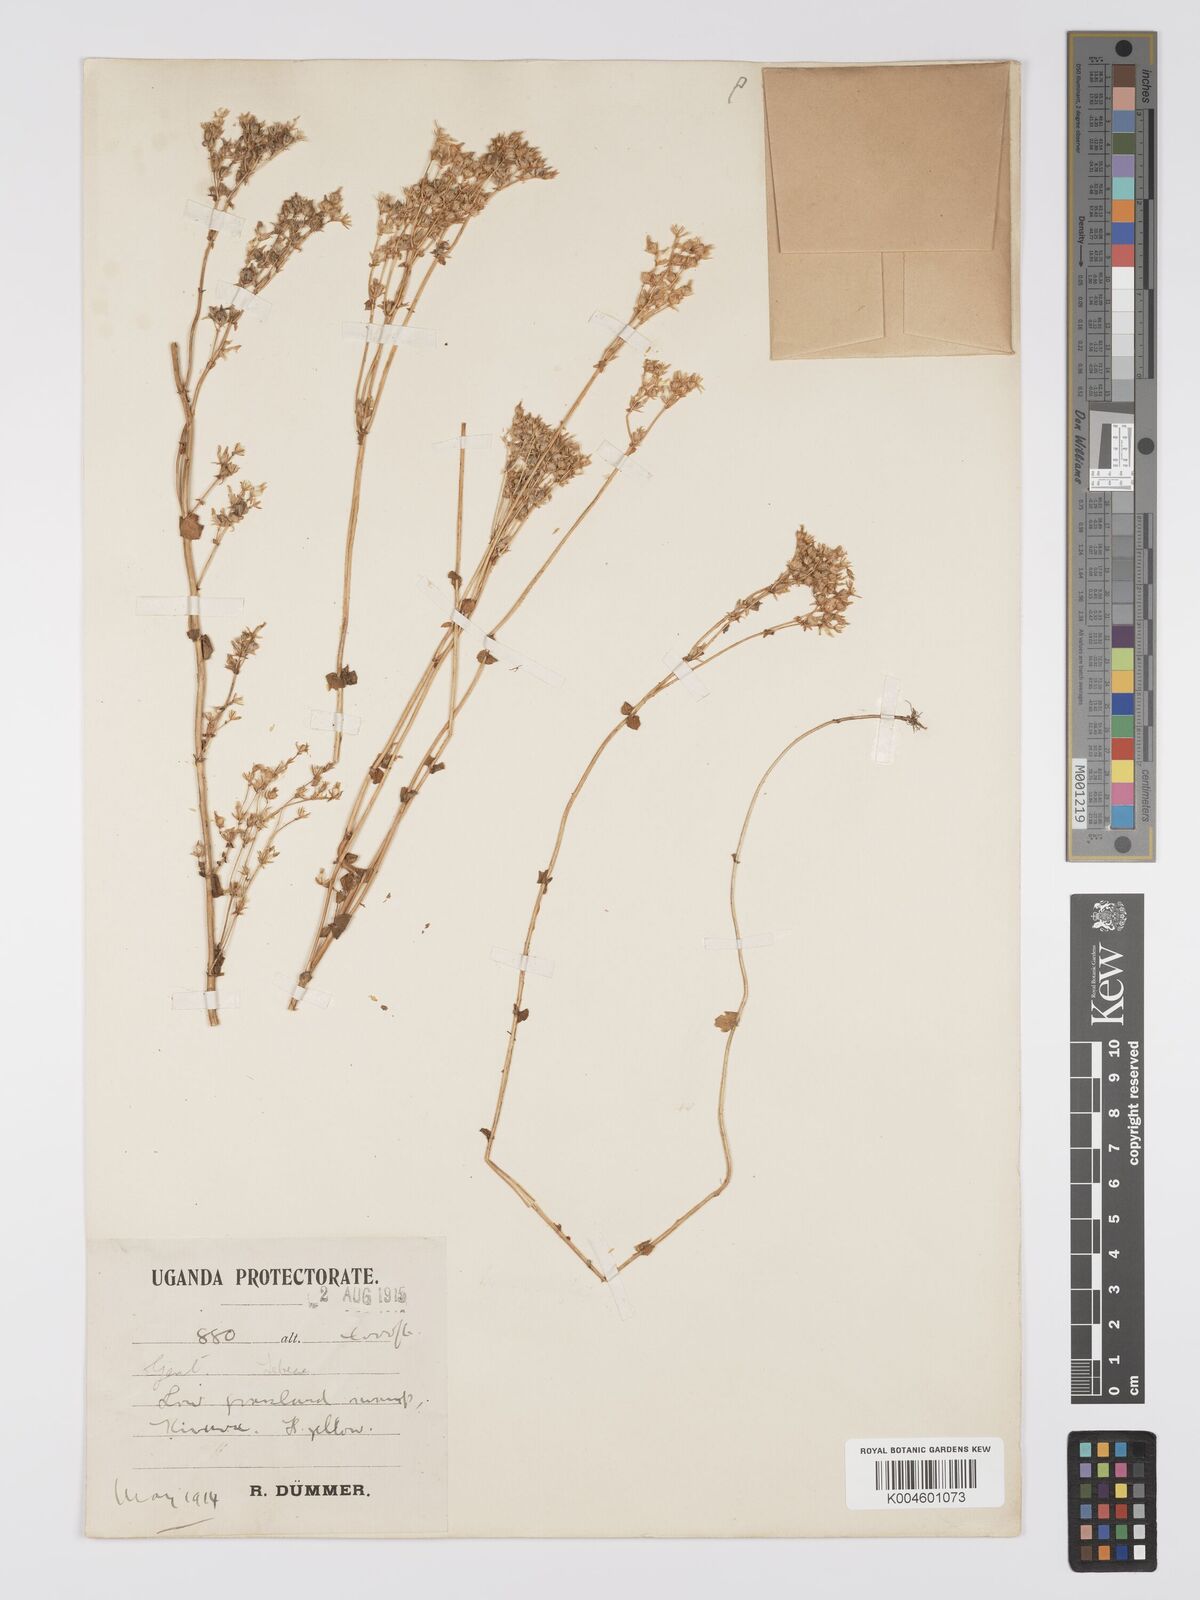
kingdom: Plantae
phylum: Tracheophyta
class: Magnoliopsida
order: Gentianales
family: Gentianaceae
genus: Sebaea
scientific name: Sebaea brachyphylla
